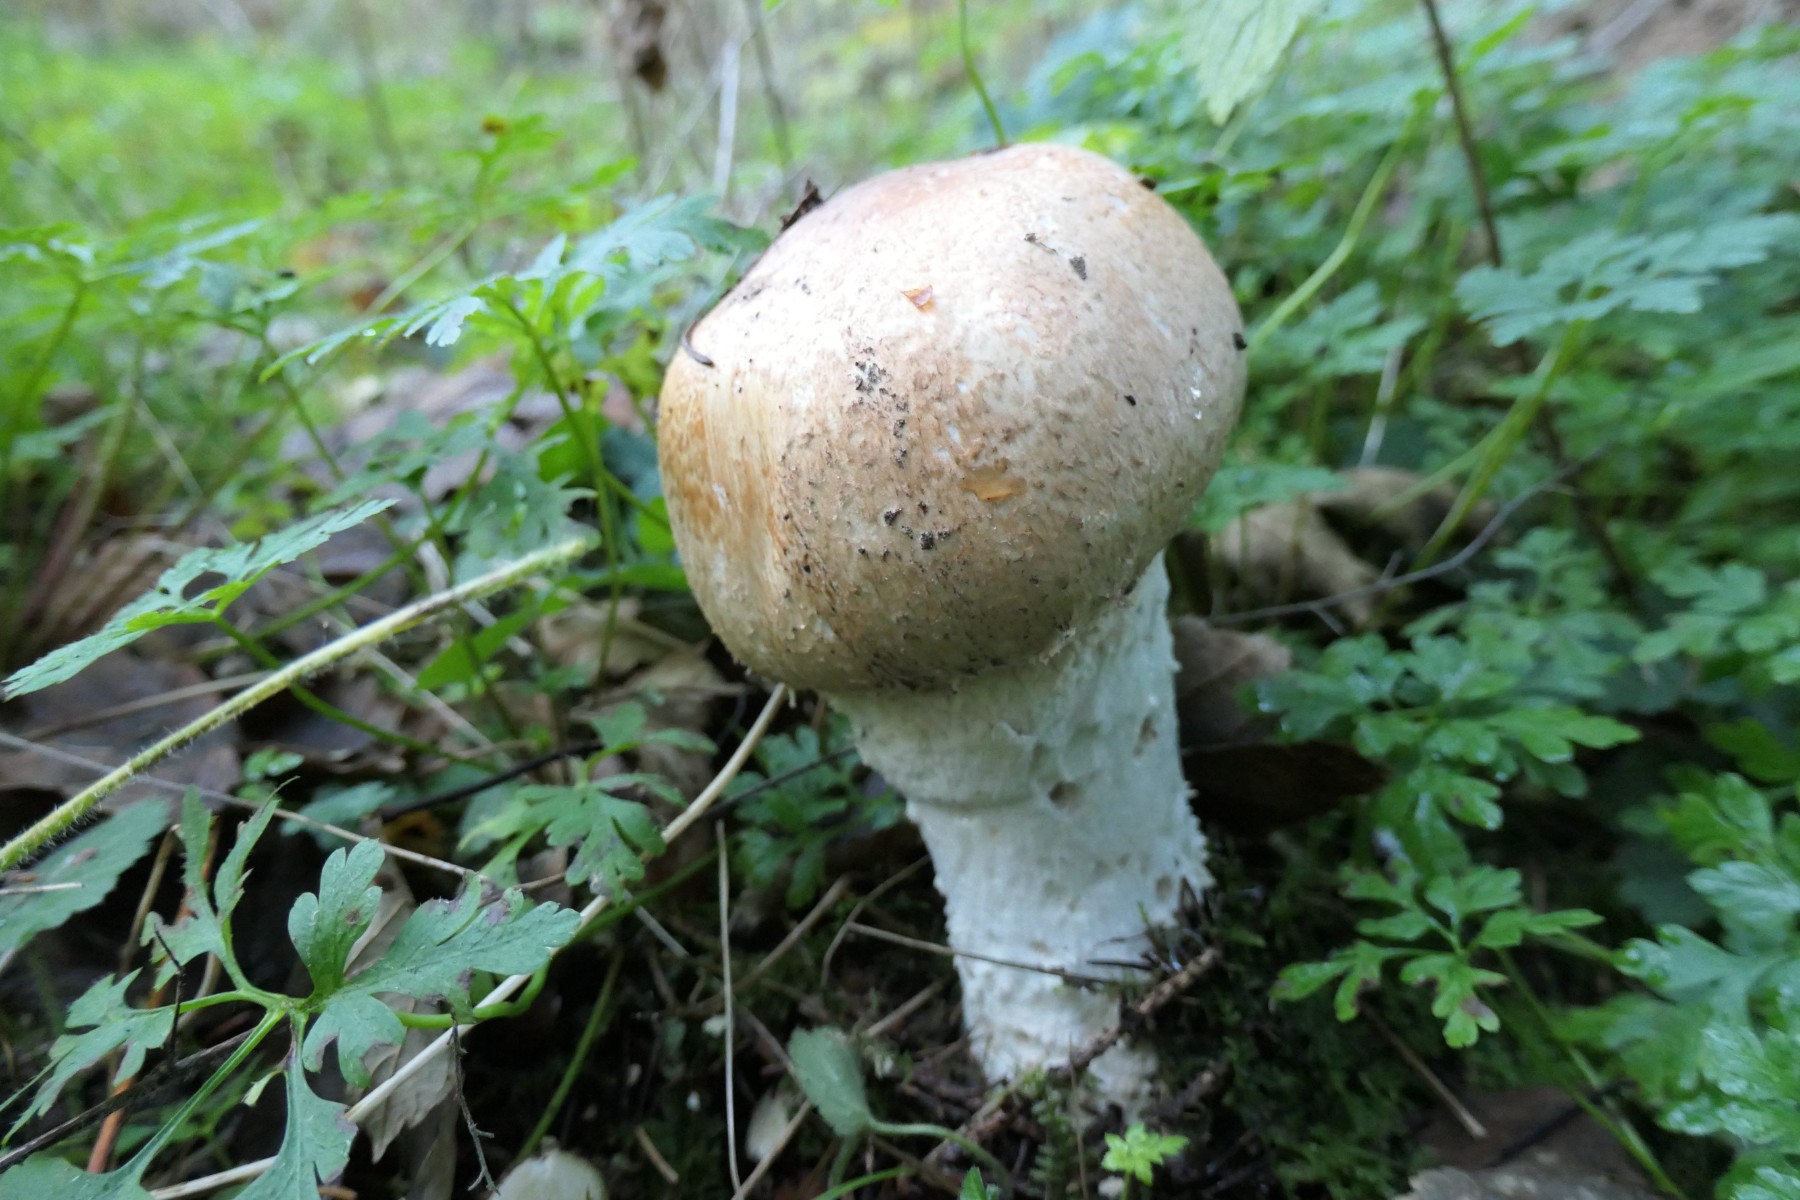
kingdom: Fungi
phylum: Basidiomycota
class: Agaricomycetes
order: Agaricales
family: Agaricaceae
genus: Agaricus
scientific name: Agaricus augustus
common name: prægtig champignon
